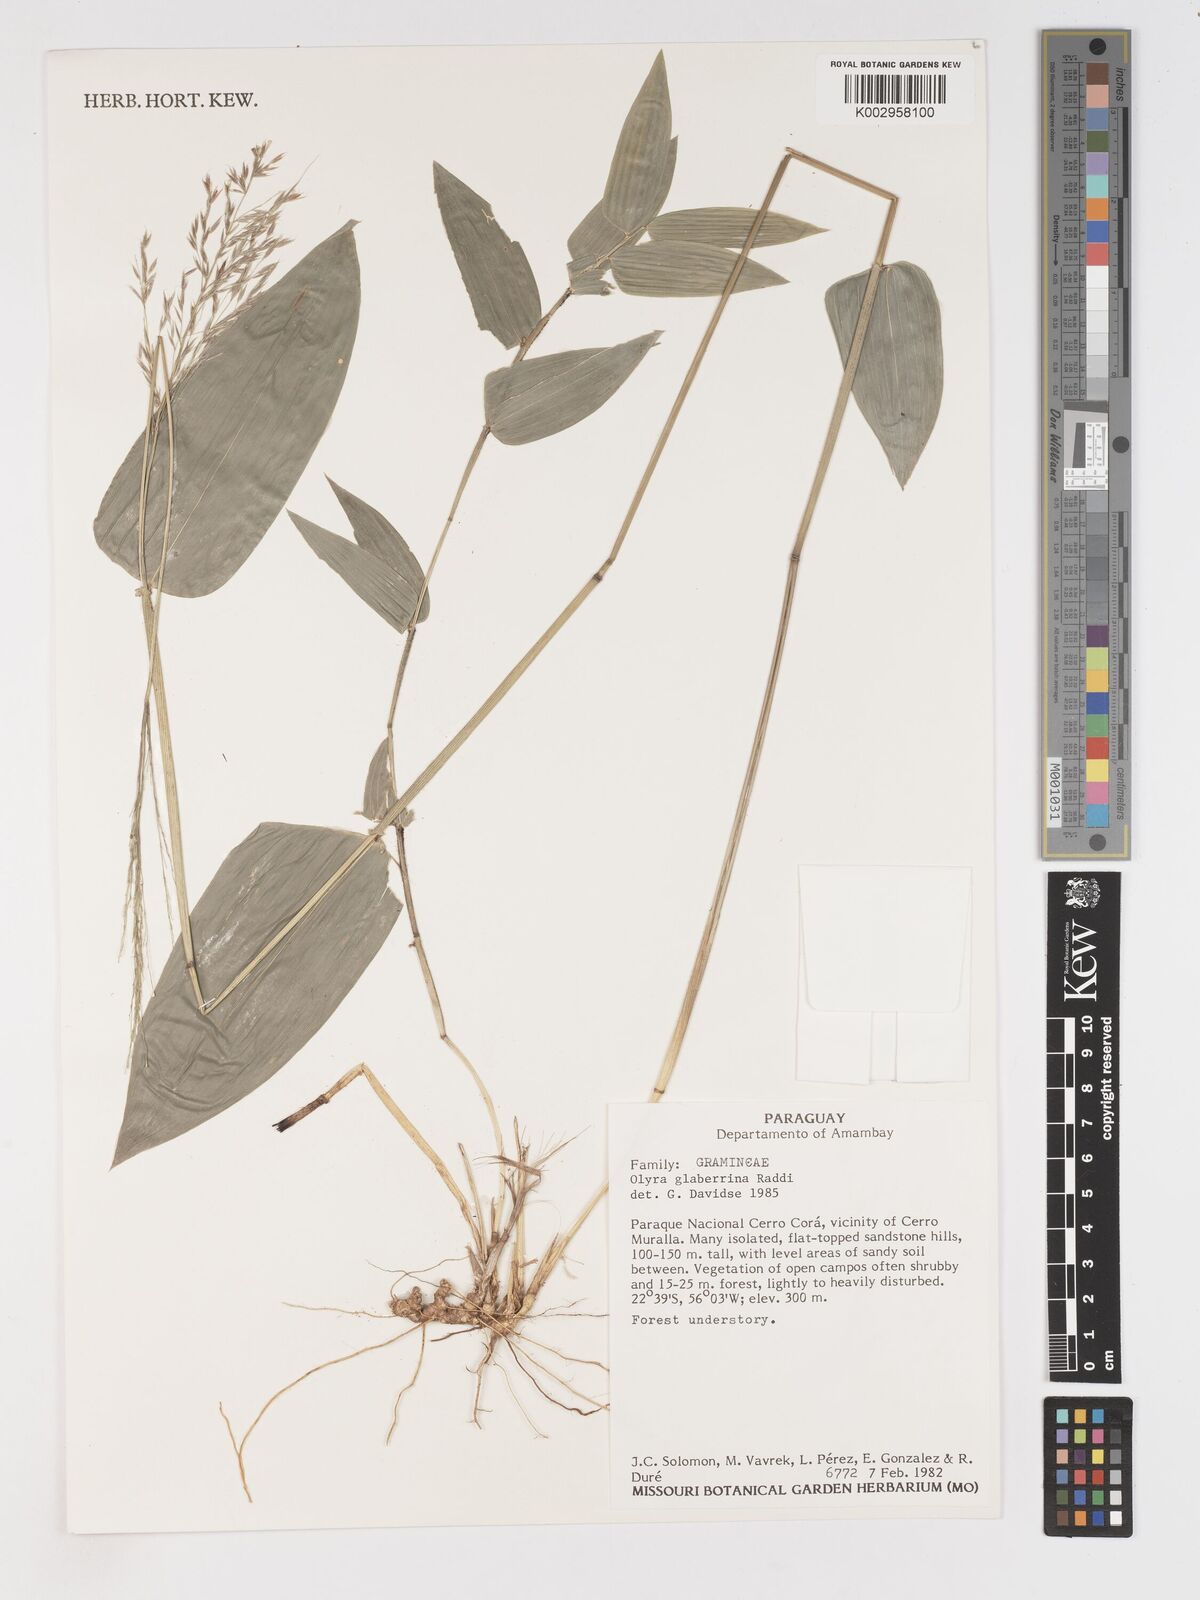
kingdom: Plantae
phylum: Tracheophyta
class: Liliopsida
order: Poales
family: Poaceae
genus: Olyra
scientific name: Olyra glaberrima
